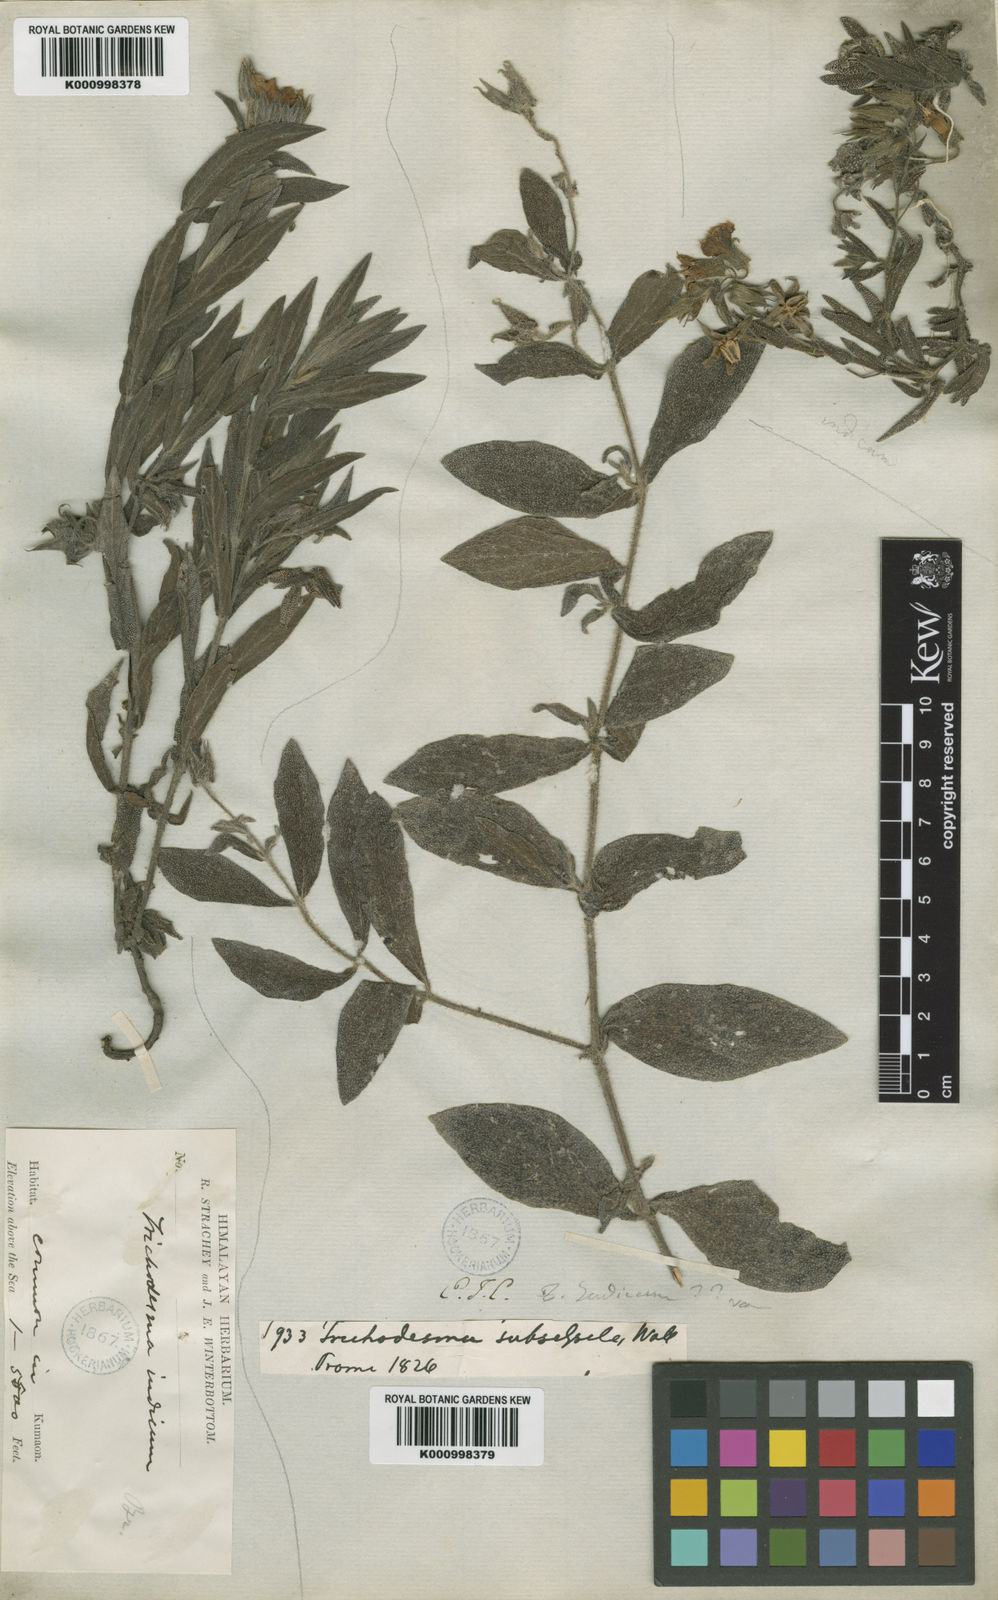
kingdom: Plantae
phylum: Tracheophyta
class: Magnoliopsida
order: Boraginales
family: Boraginaceae
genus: Trichodesma
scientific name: Trichodesma
